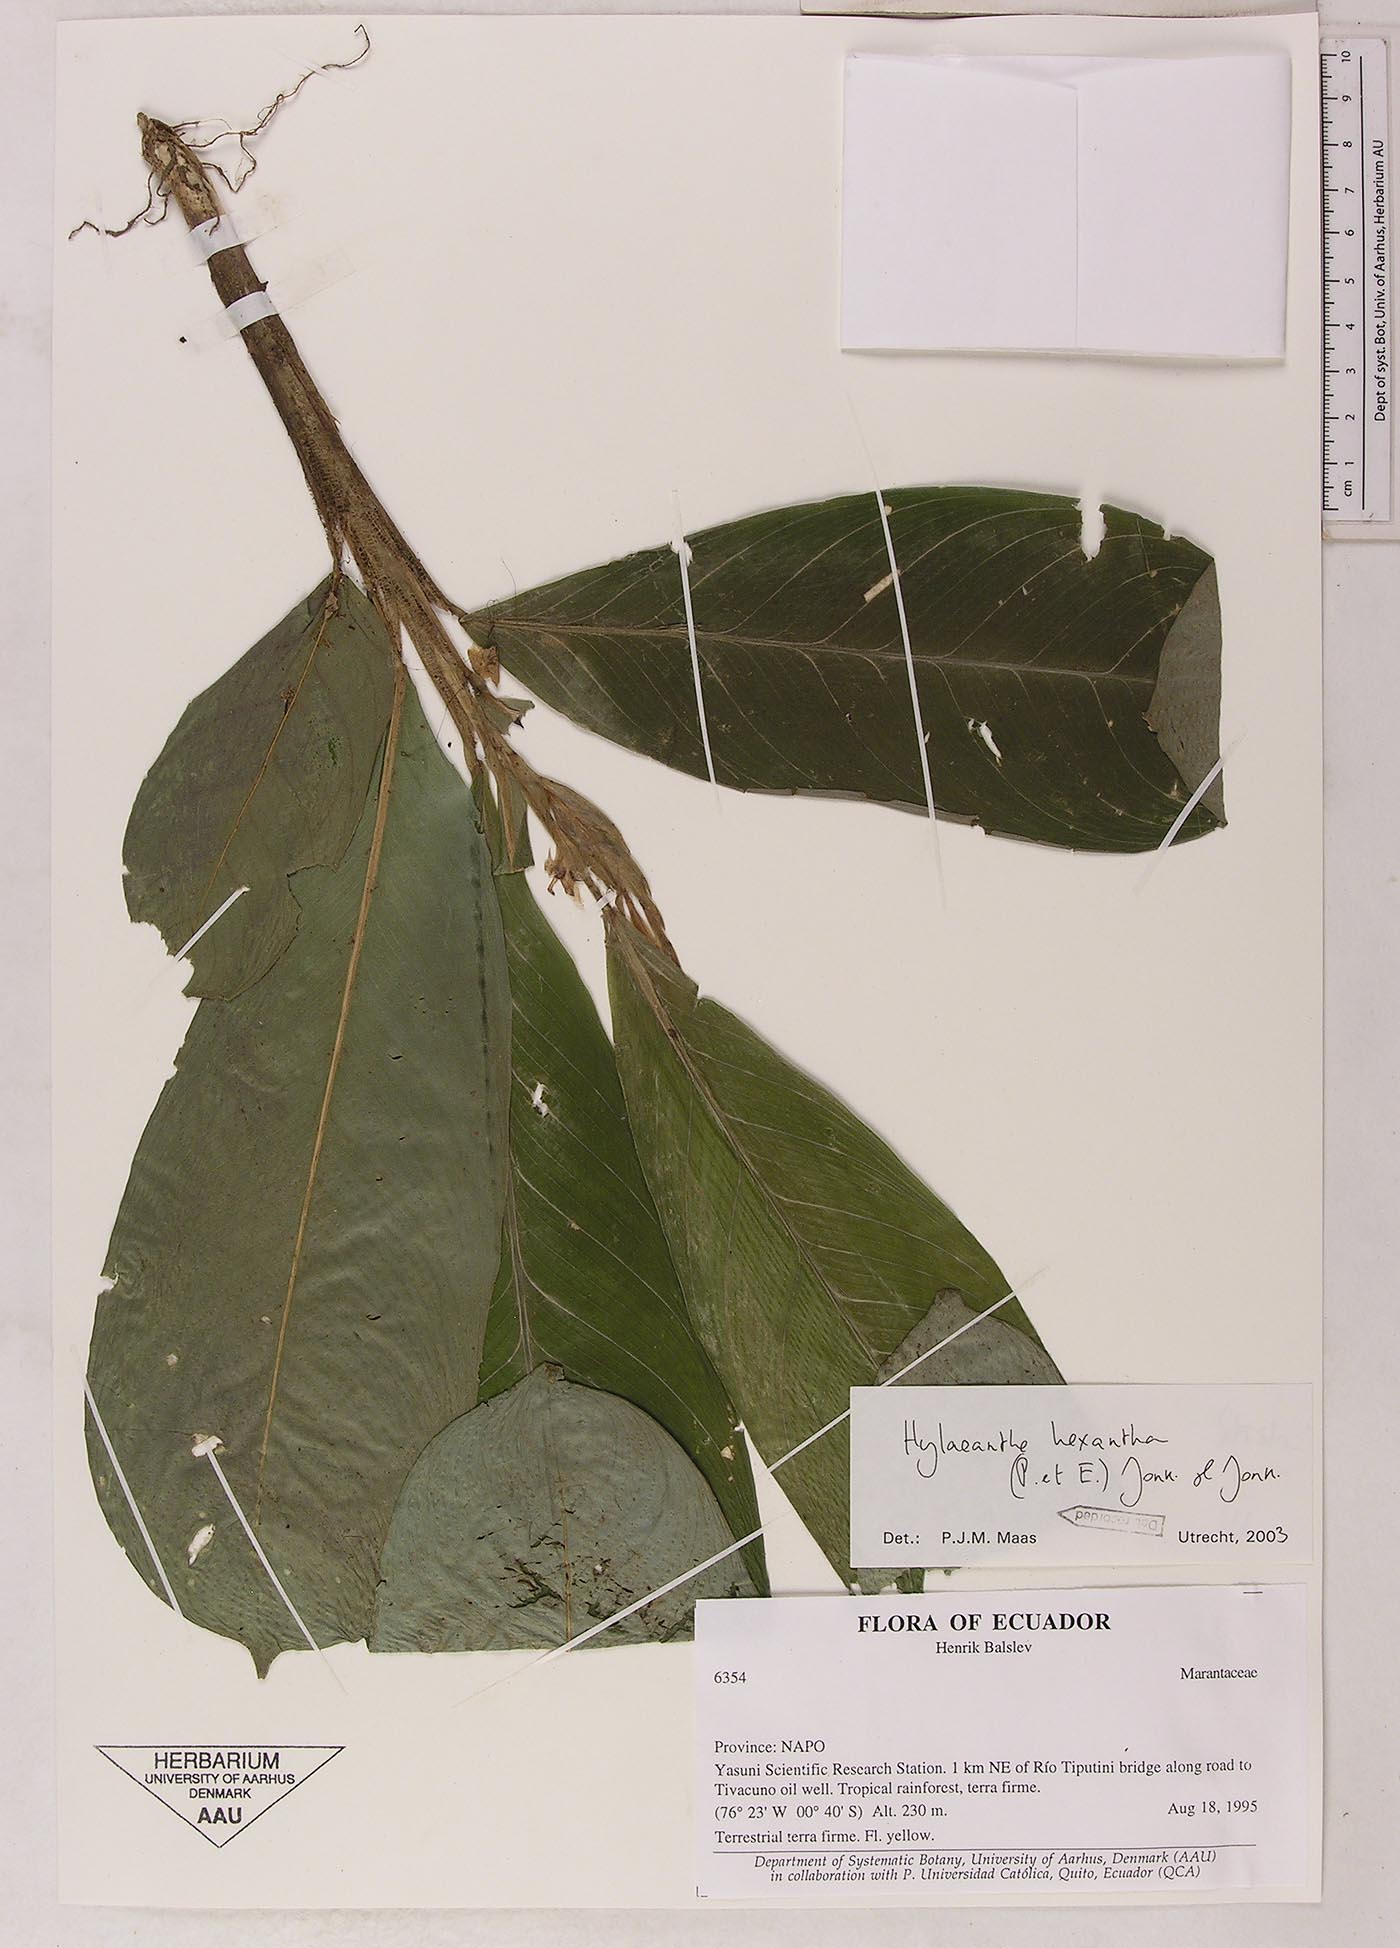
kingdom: Plantae
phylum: Tracheophyta
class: Liliopsida
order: Zingiberales
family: Marantaceae
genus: Hylaeanthe
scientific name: Hylaeanthe hexantha
